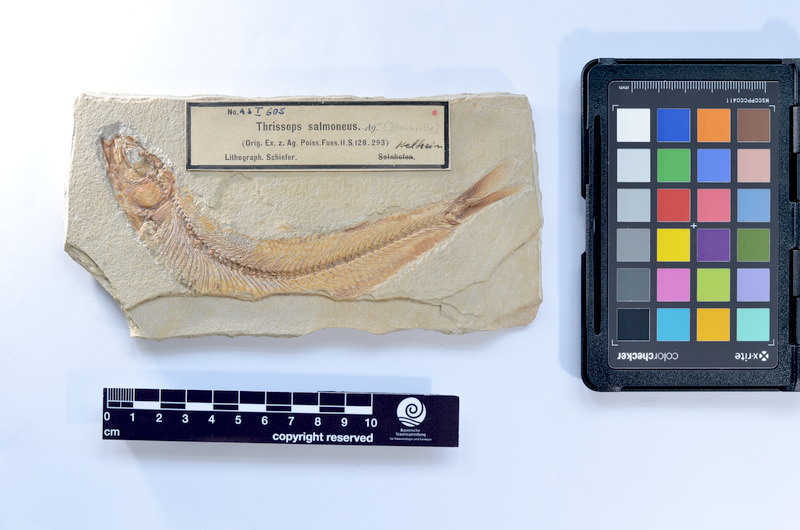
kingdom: Animalia
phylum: Chordata
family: Allothrissopidae
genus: Allothrissops
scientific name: Allothrissops mesogaster
